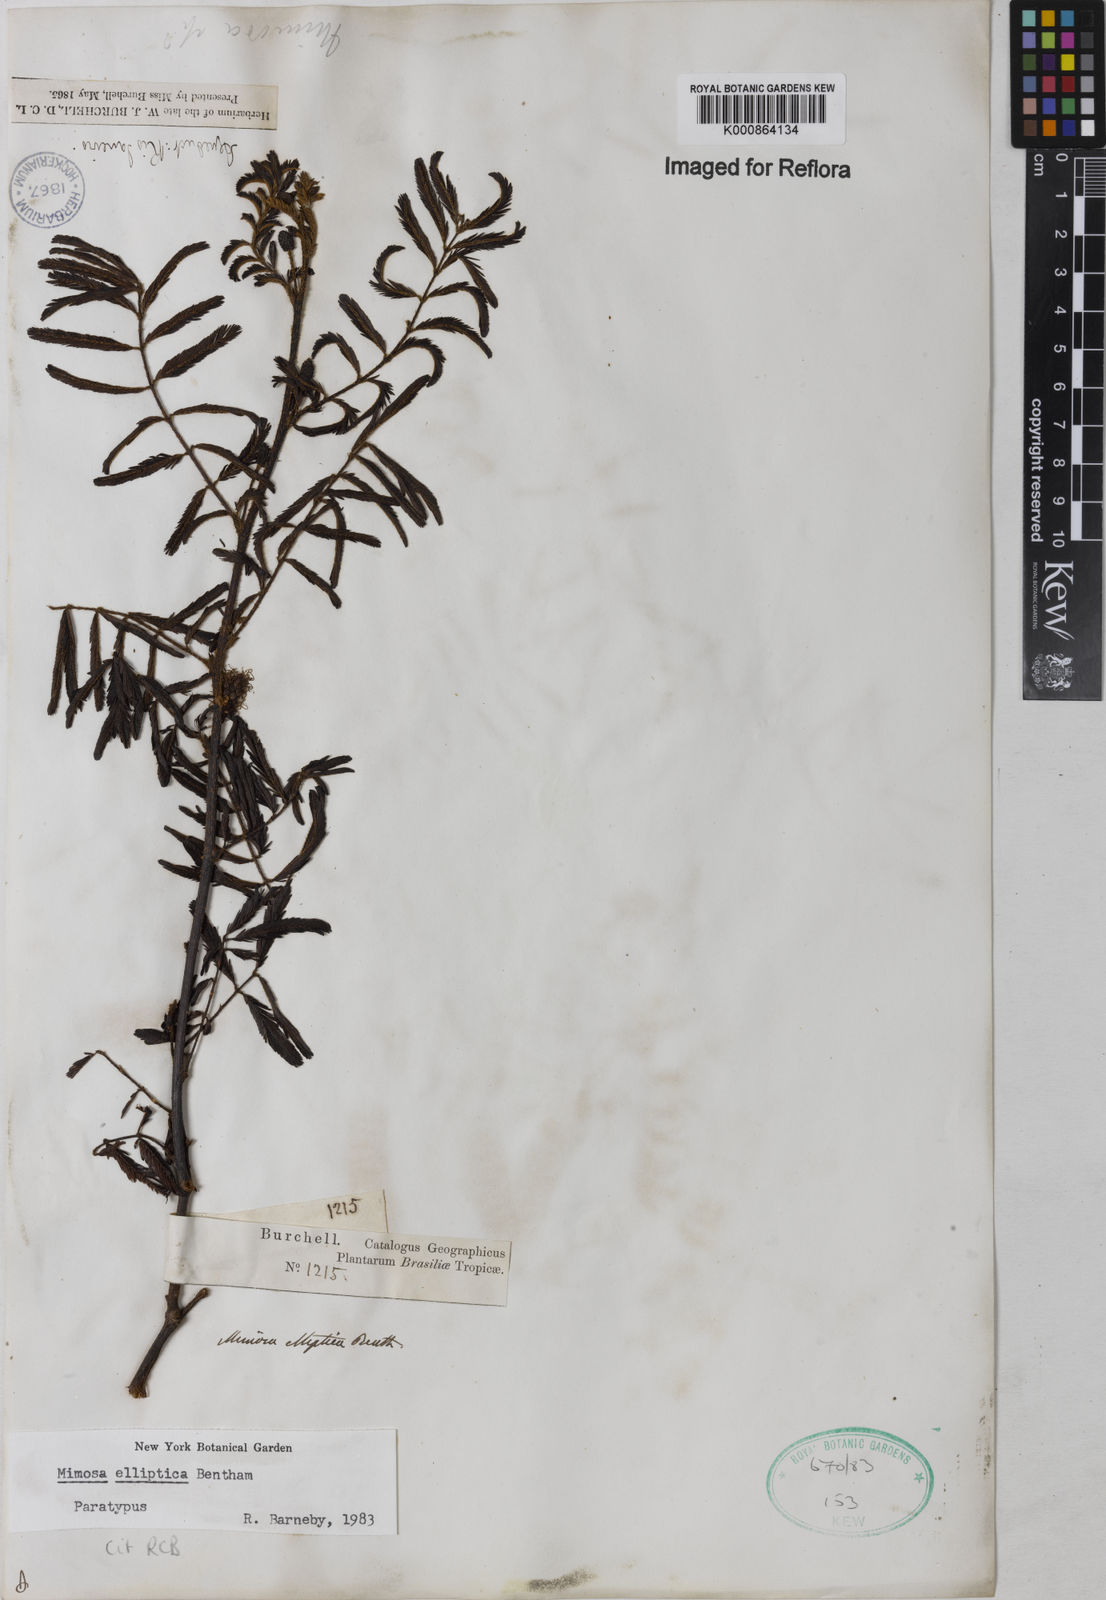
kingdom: Plantae
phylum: Tracheophyta
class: Magnoliopsida
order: Fabales
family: Fabaceae
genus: Mimosa
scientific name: Mimosa elliptica
